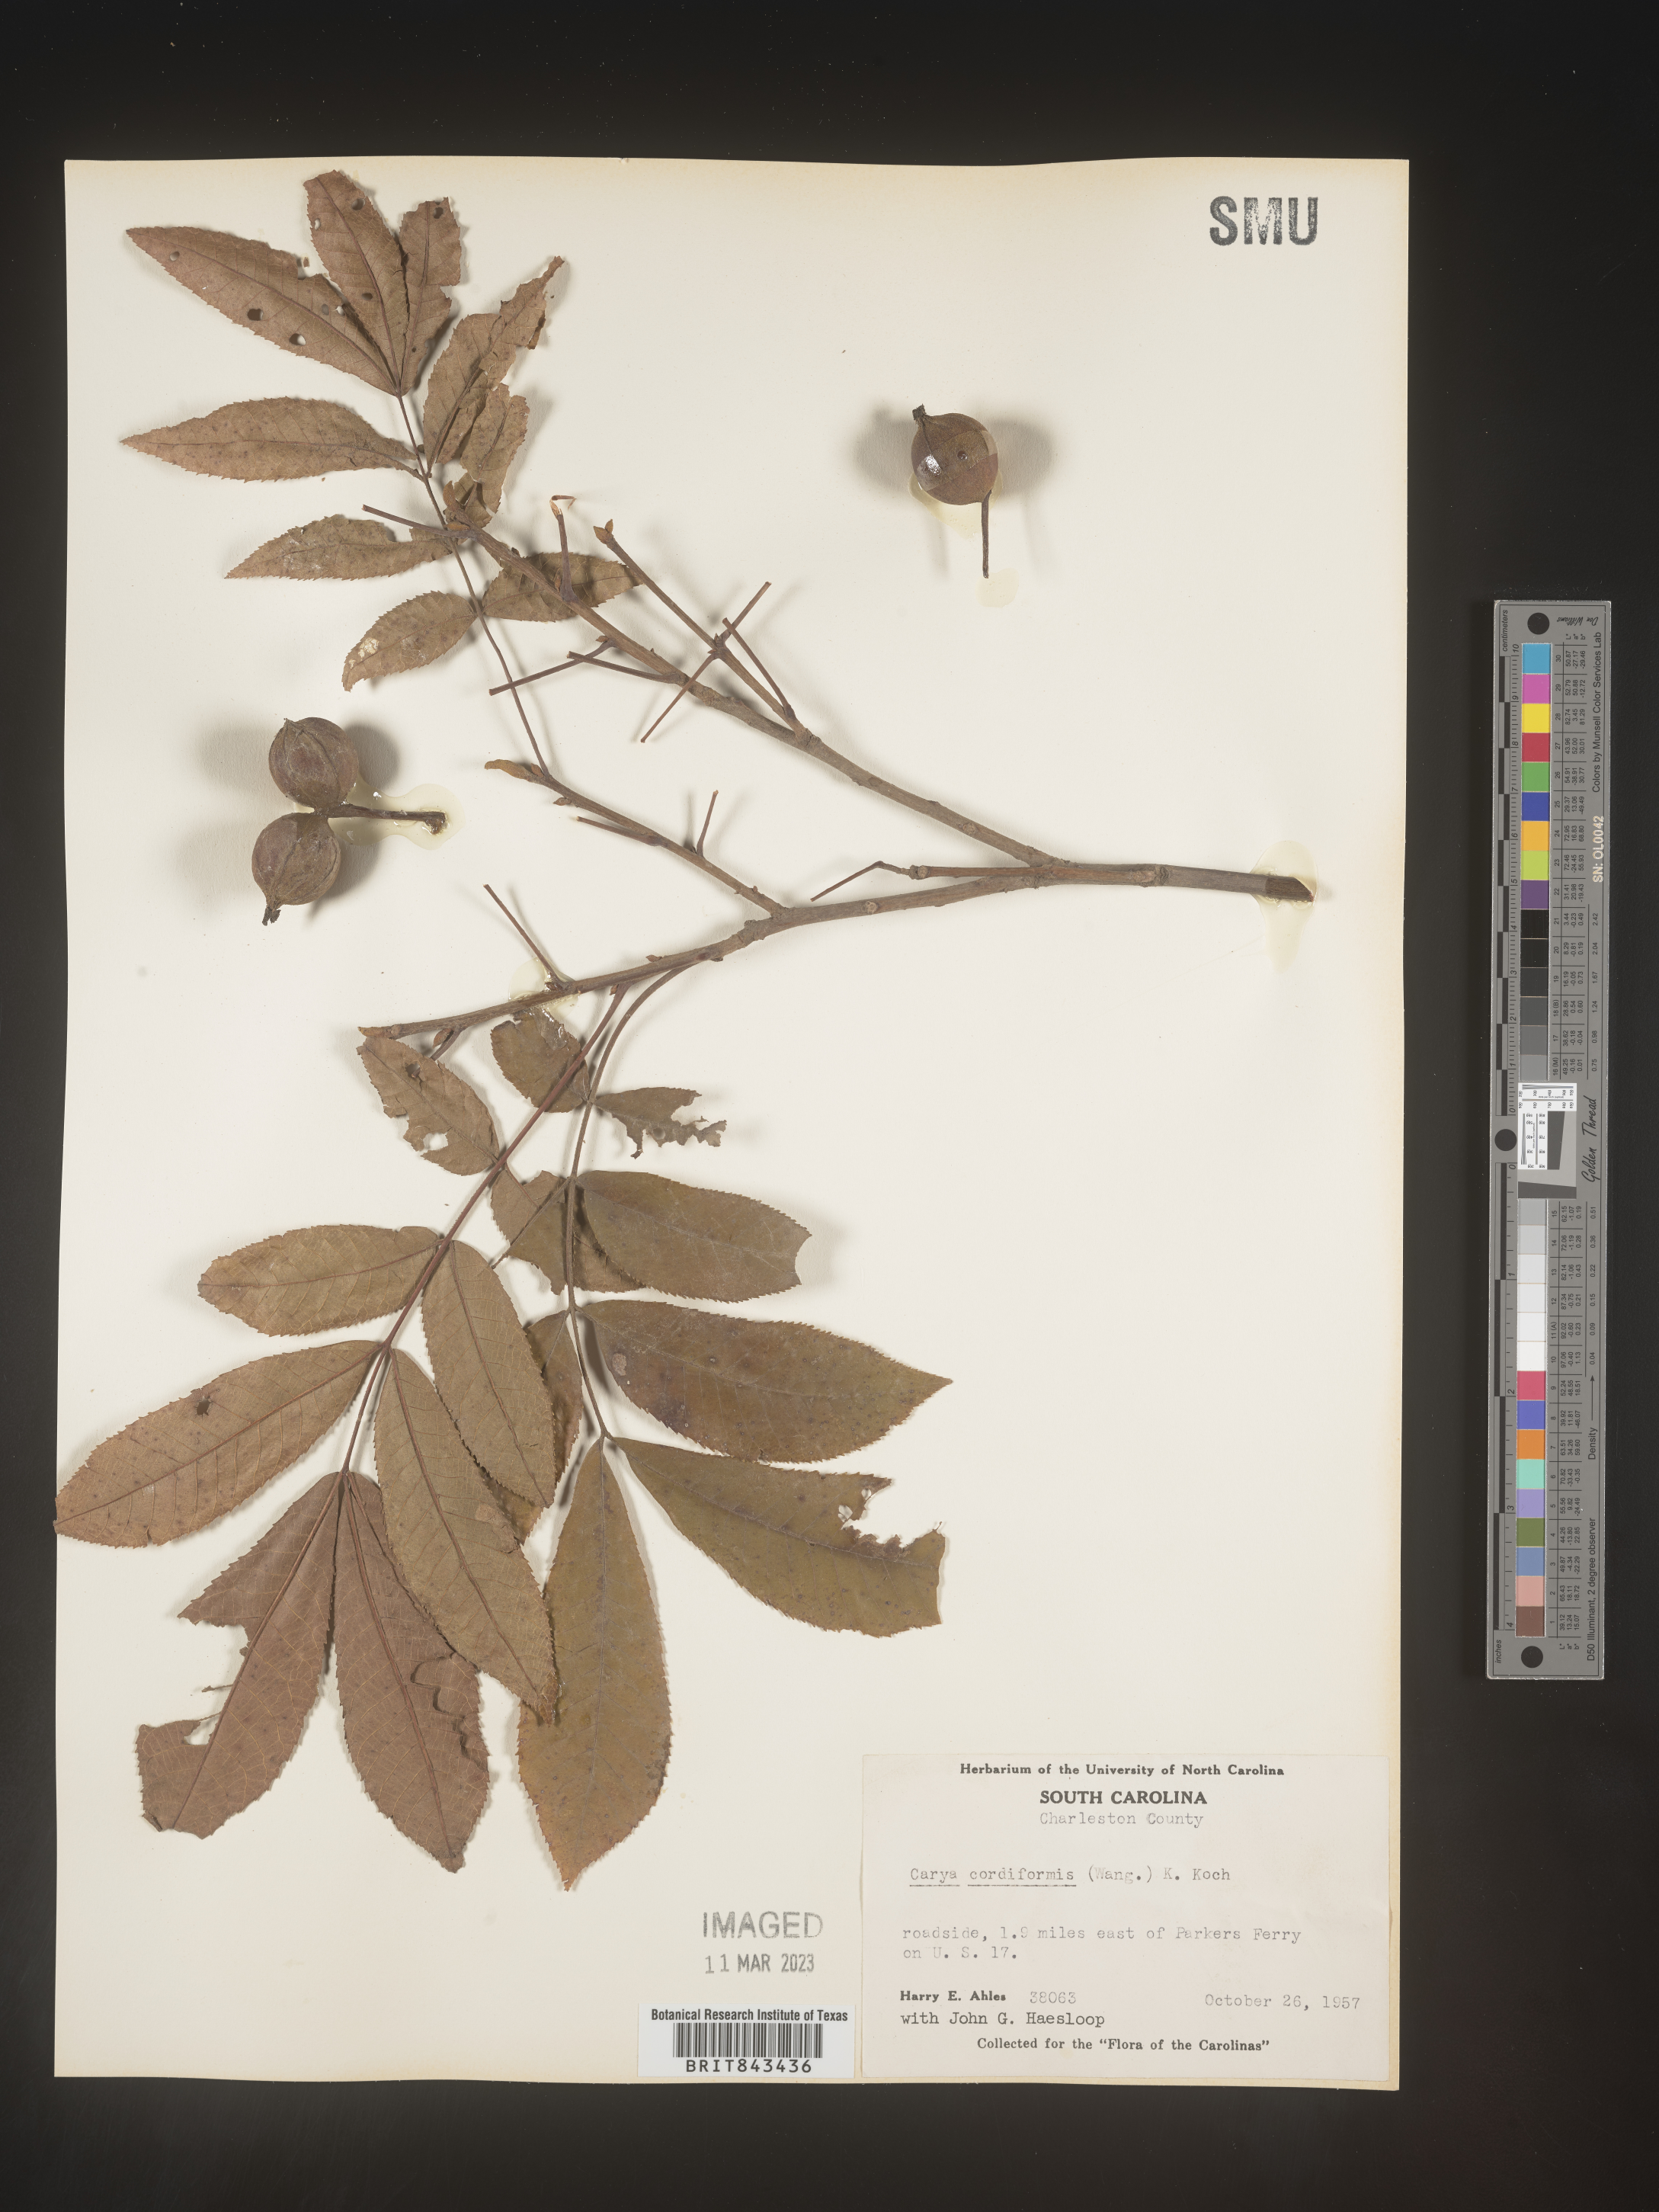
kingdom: Plantae
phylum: Tracheophyta
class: Magnoliopsida
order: Fagales
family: Juglandaceae
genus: Carya
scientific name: Carya cordiformis
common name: Bitternut hickory
